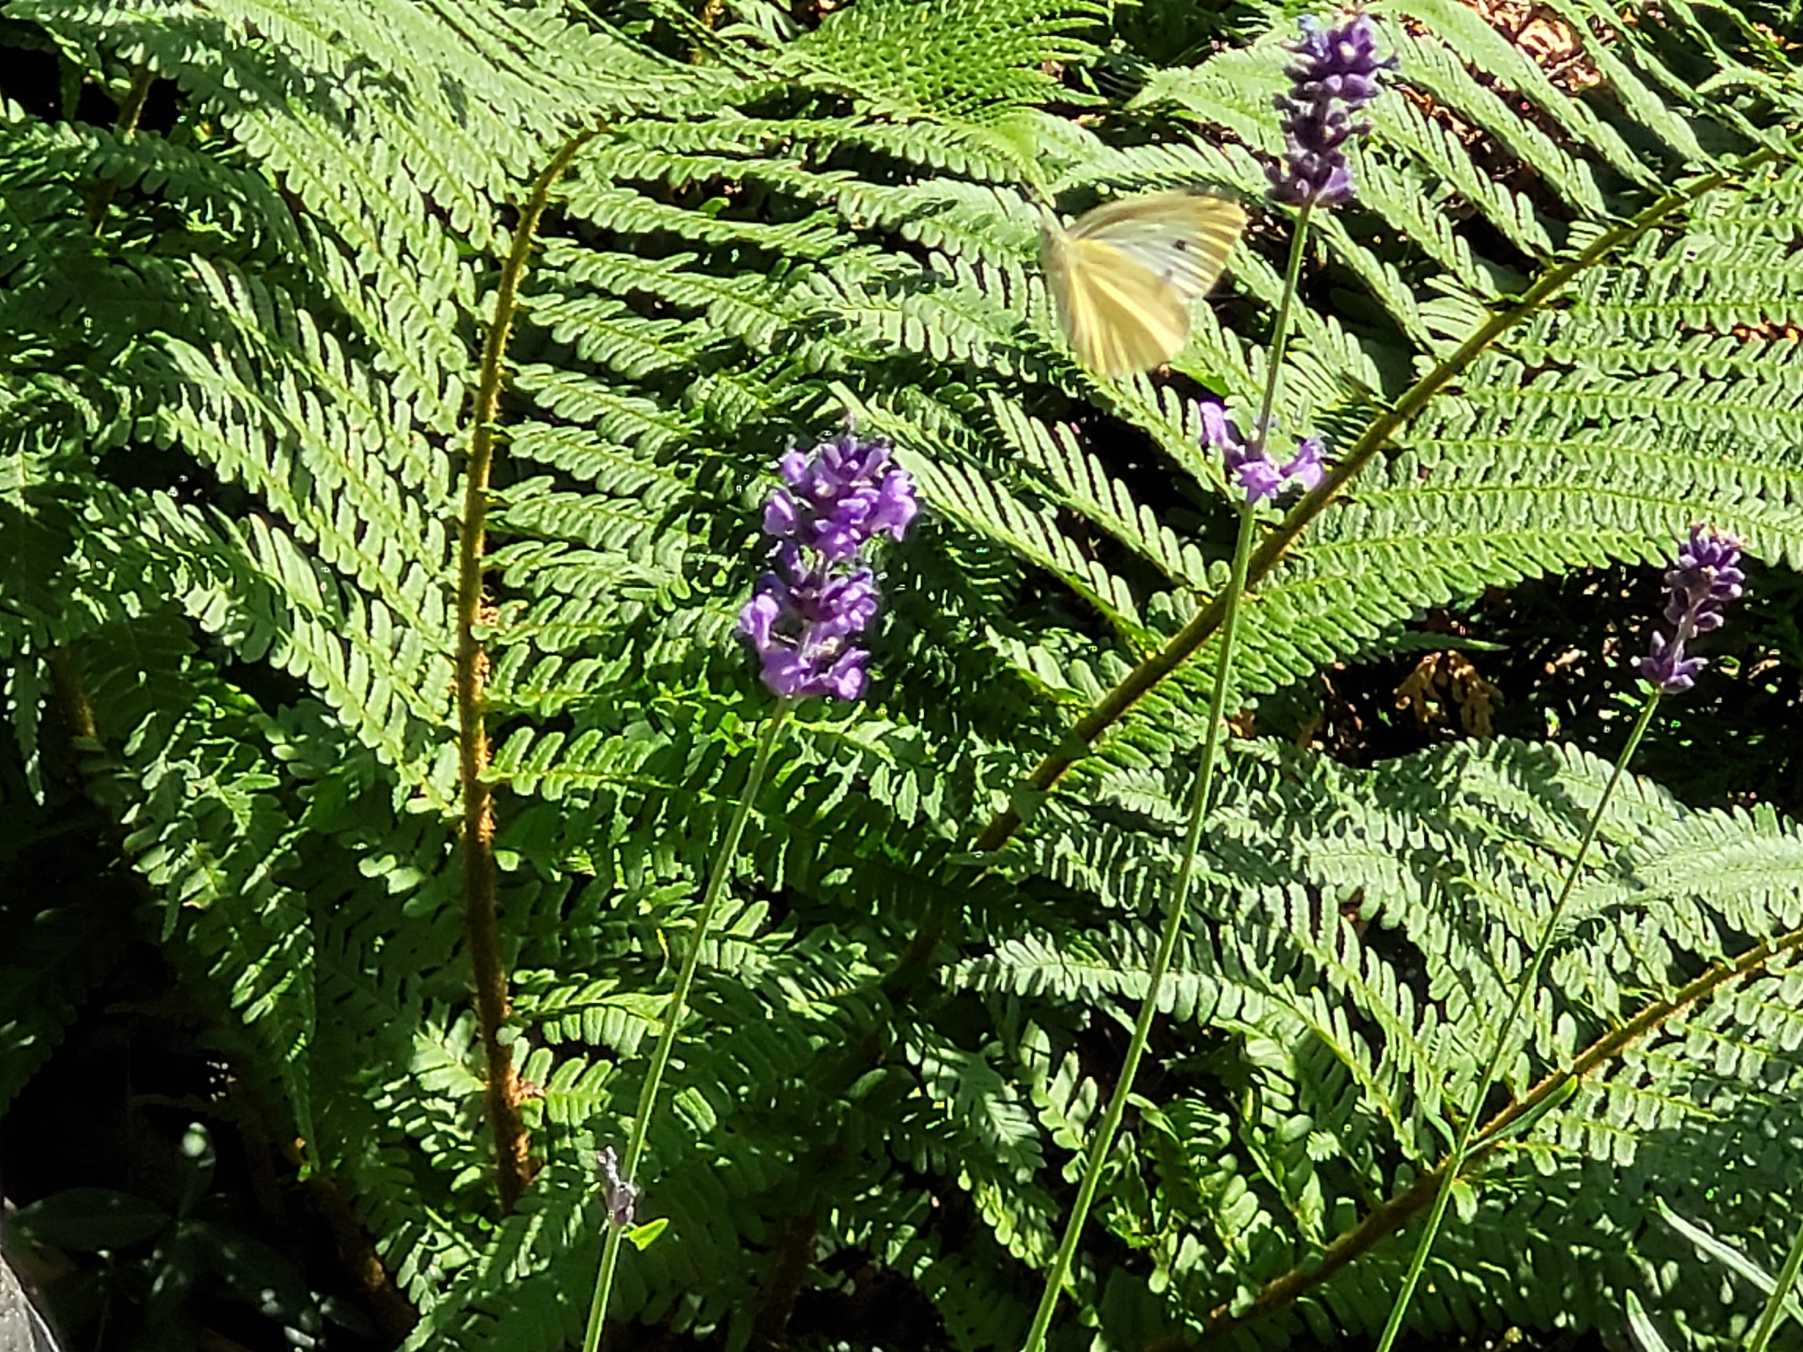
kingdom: Animalia
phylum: Arthropoda
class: Insecta
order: Lepidoptera
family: Pieridae
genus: Pieris
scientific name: Pieris rapae
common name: Lille kålsommerfugl
